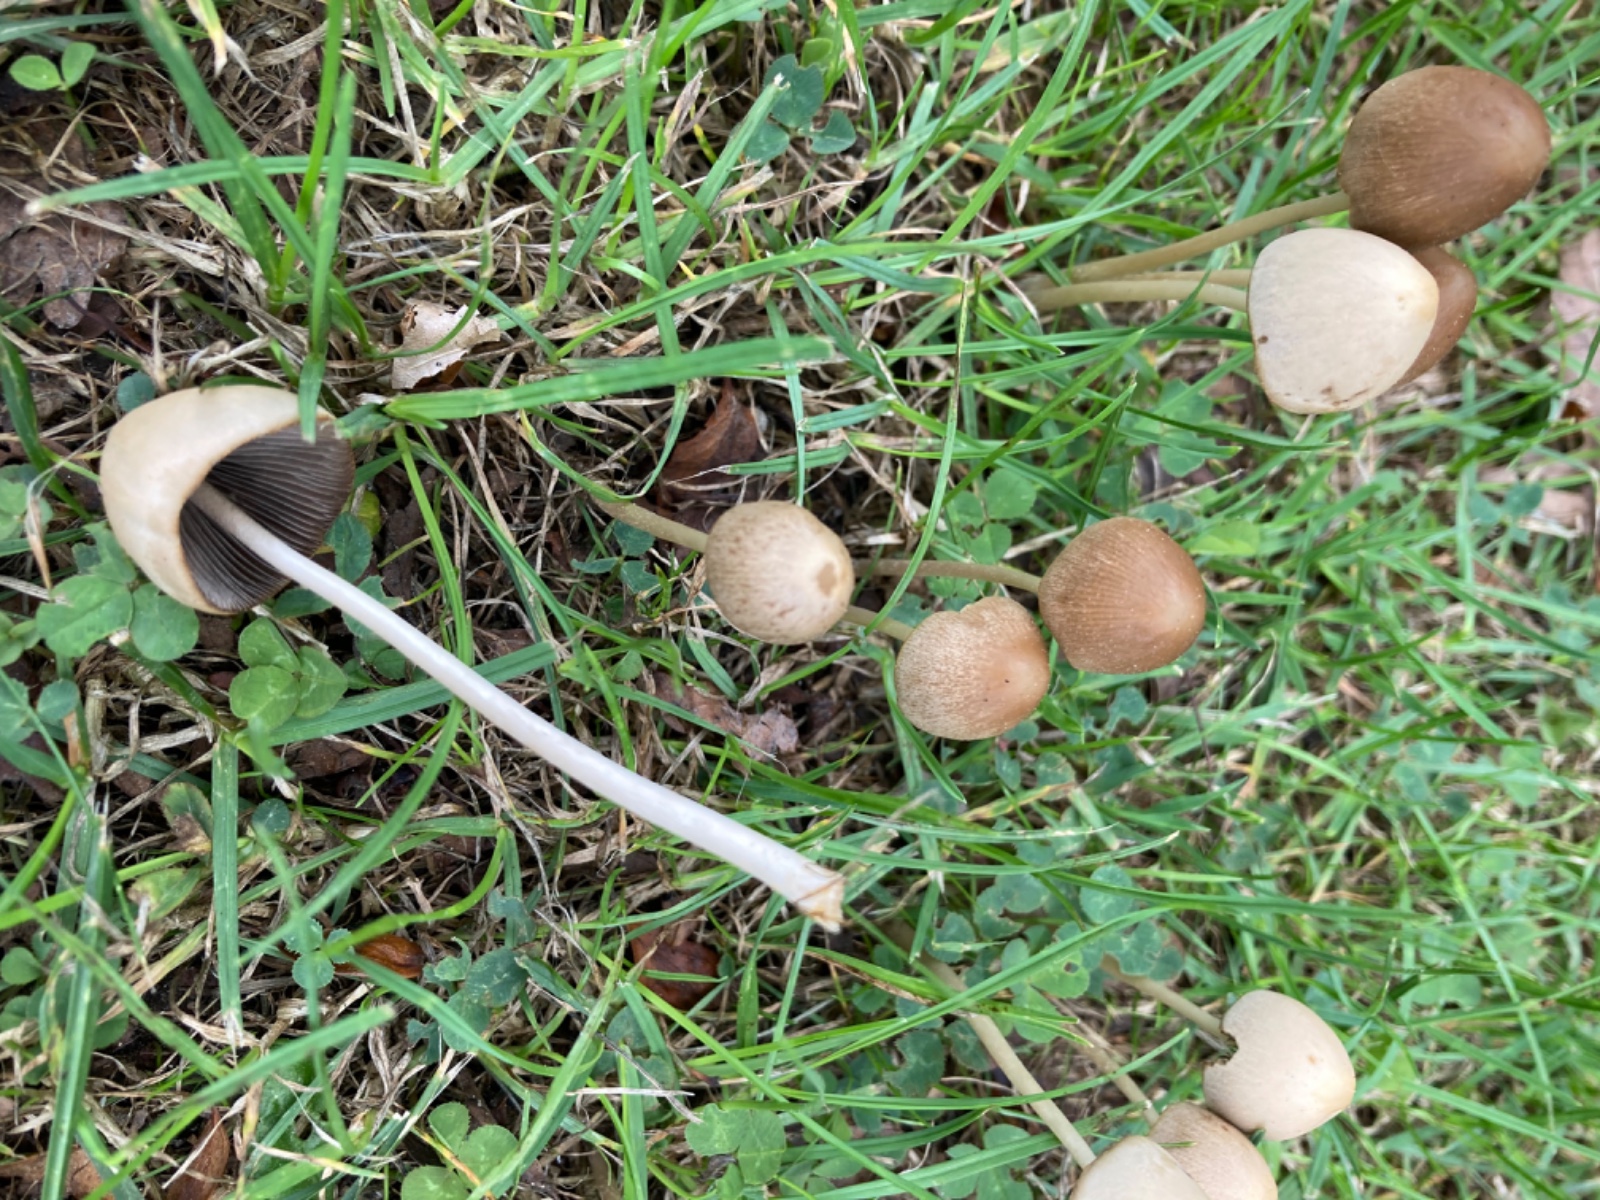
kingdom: Fungi
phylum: Basidiomycota
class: Agaricomycetes
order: Agaricales
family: Psathyrellaceae
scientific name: Psathyrellaceae
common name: mørkhatfamilien
